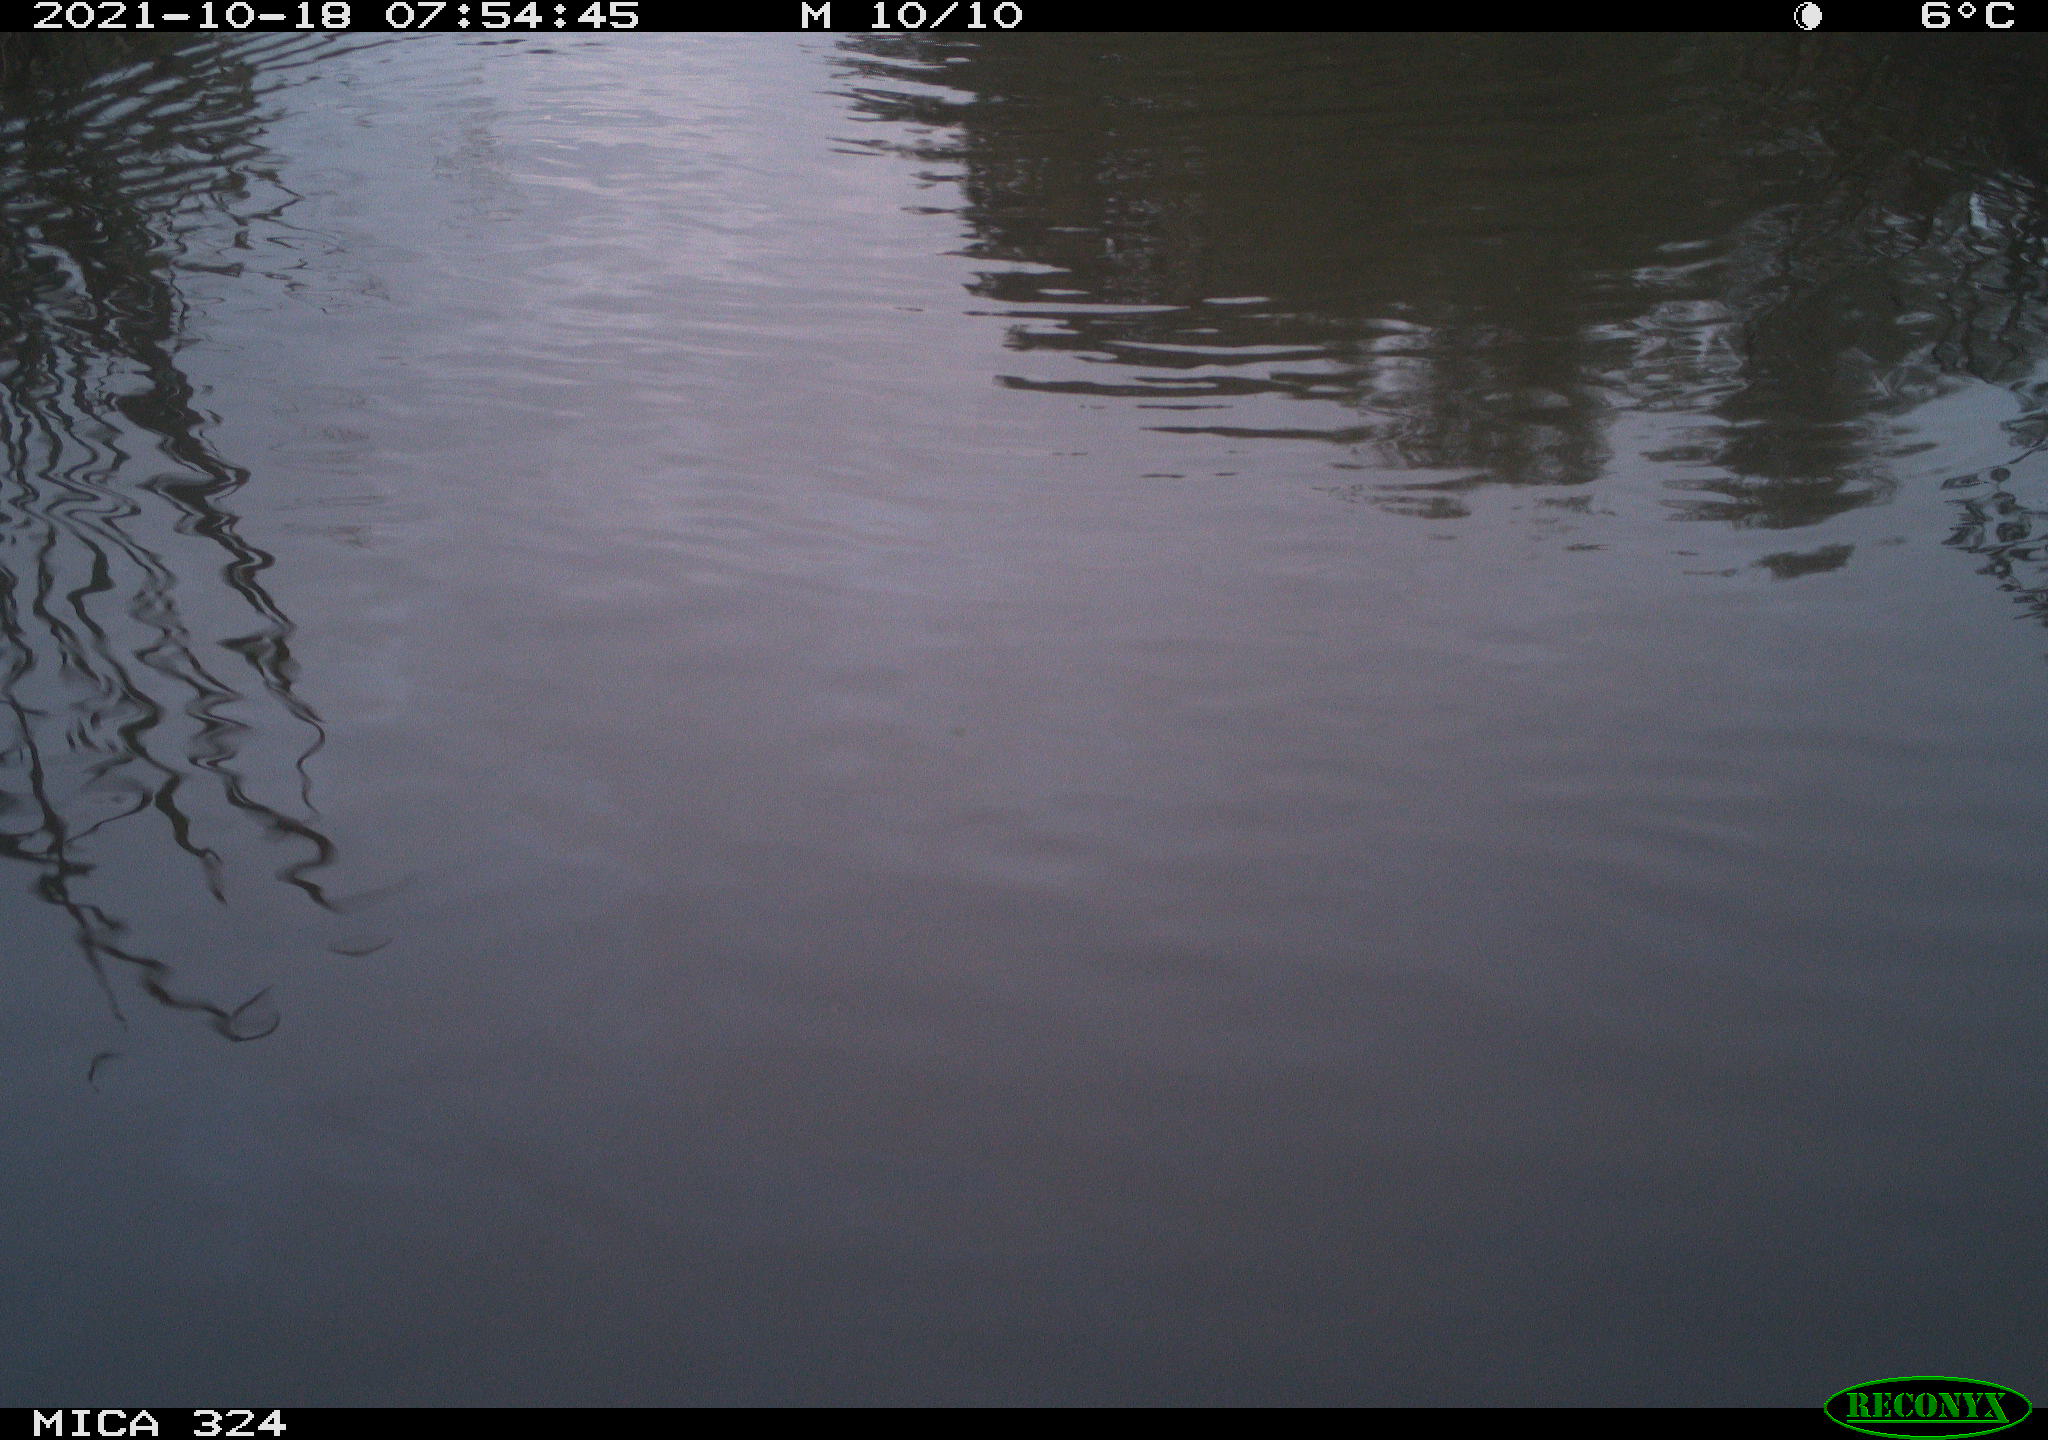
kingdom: Animalia
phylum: Chordata
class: Mammalia
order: Rodentia
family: Cricetidae
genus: Ondatra
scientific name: Ondatra zibethicus
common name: Muskrat
